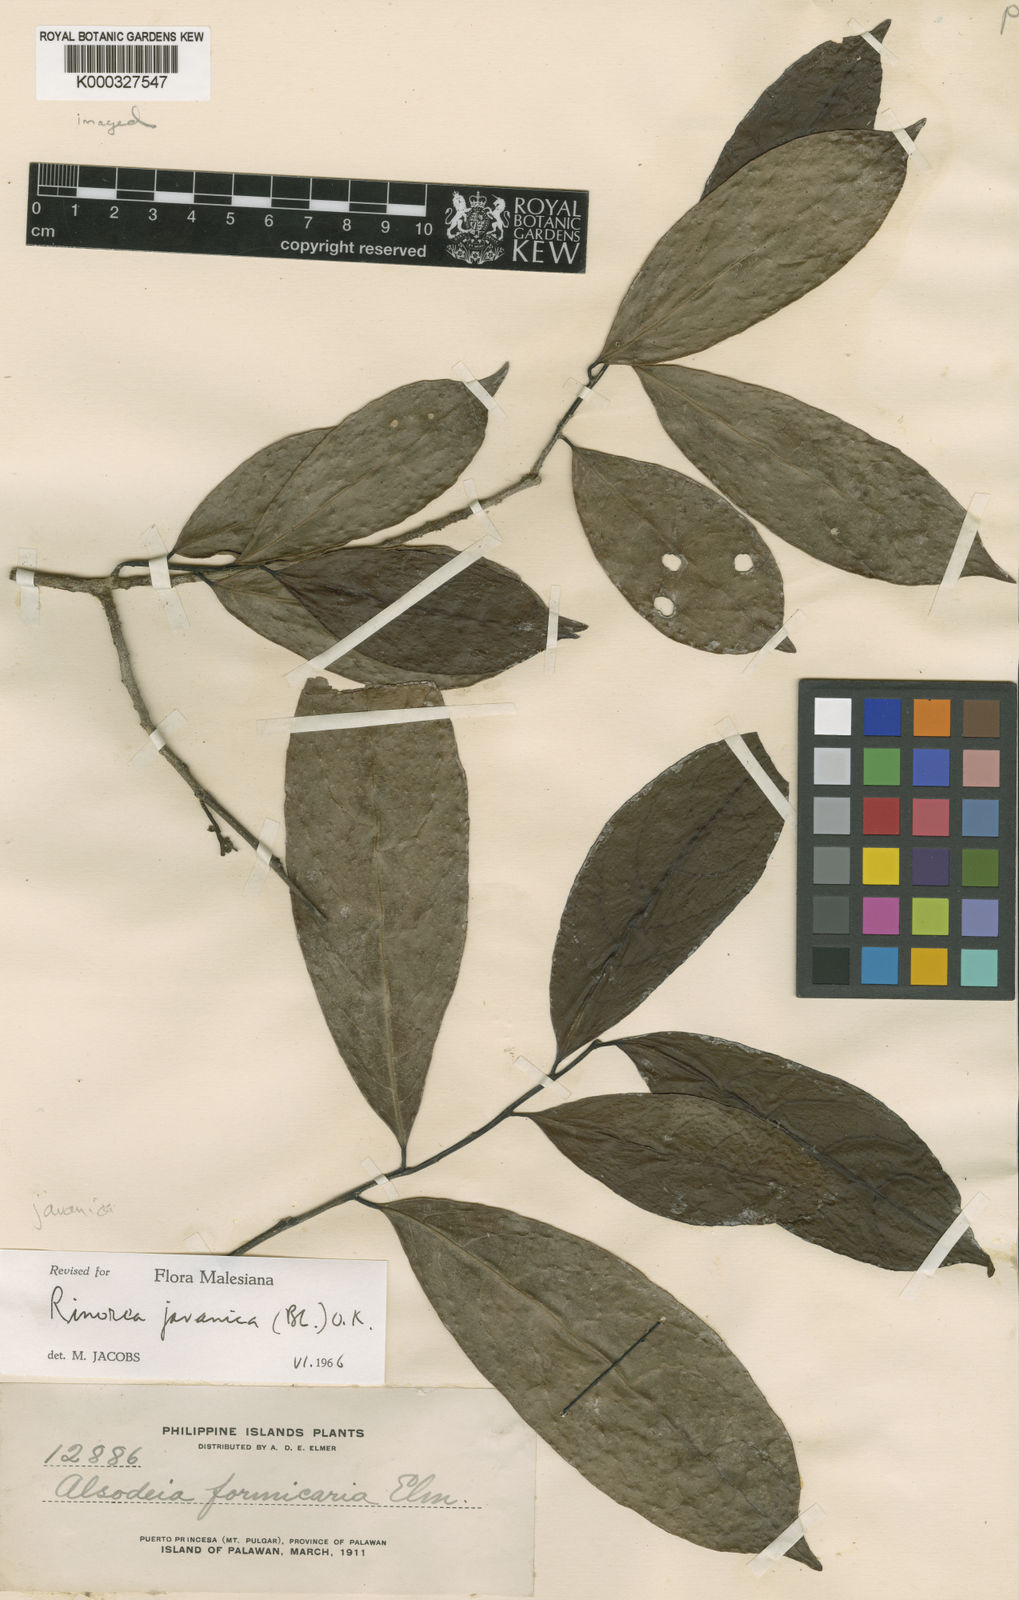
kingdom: Plantae
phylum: Tracheophyta
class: Magnoliopsida
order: Malpighiales
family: Violaceae
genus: Rinorea
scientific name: Rinorea javanica
